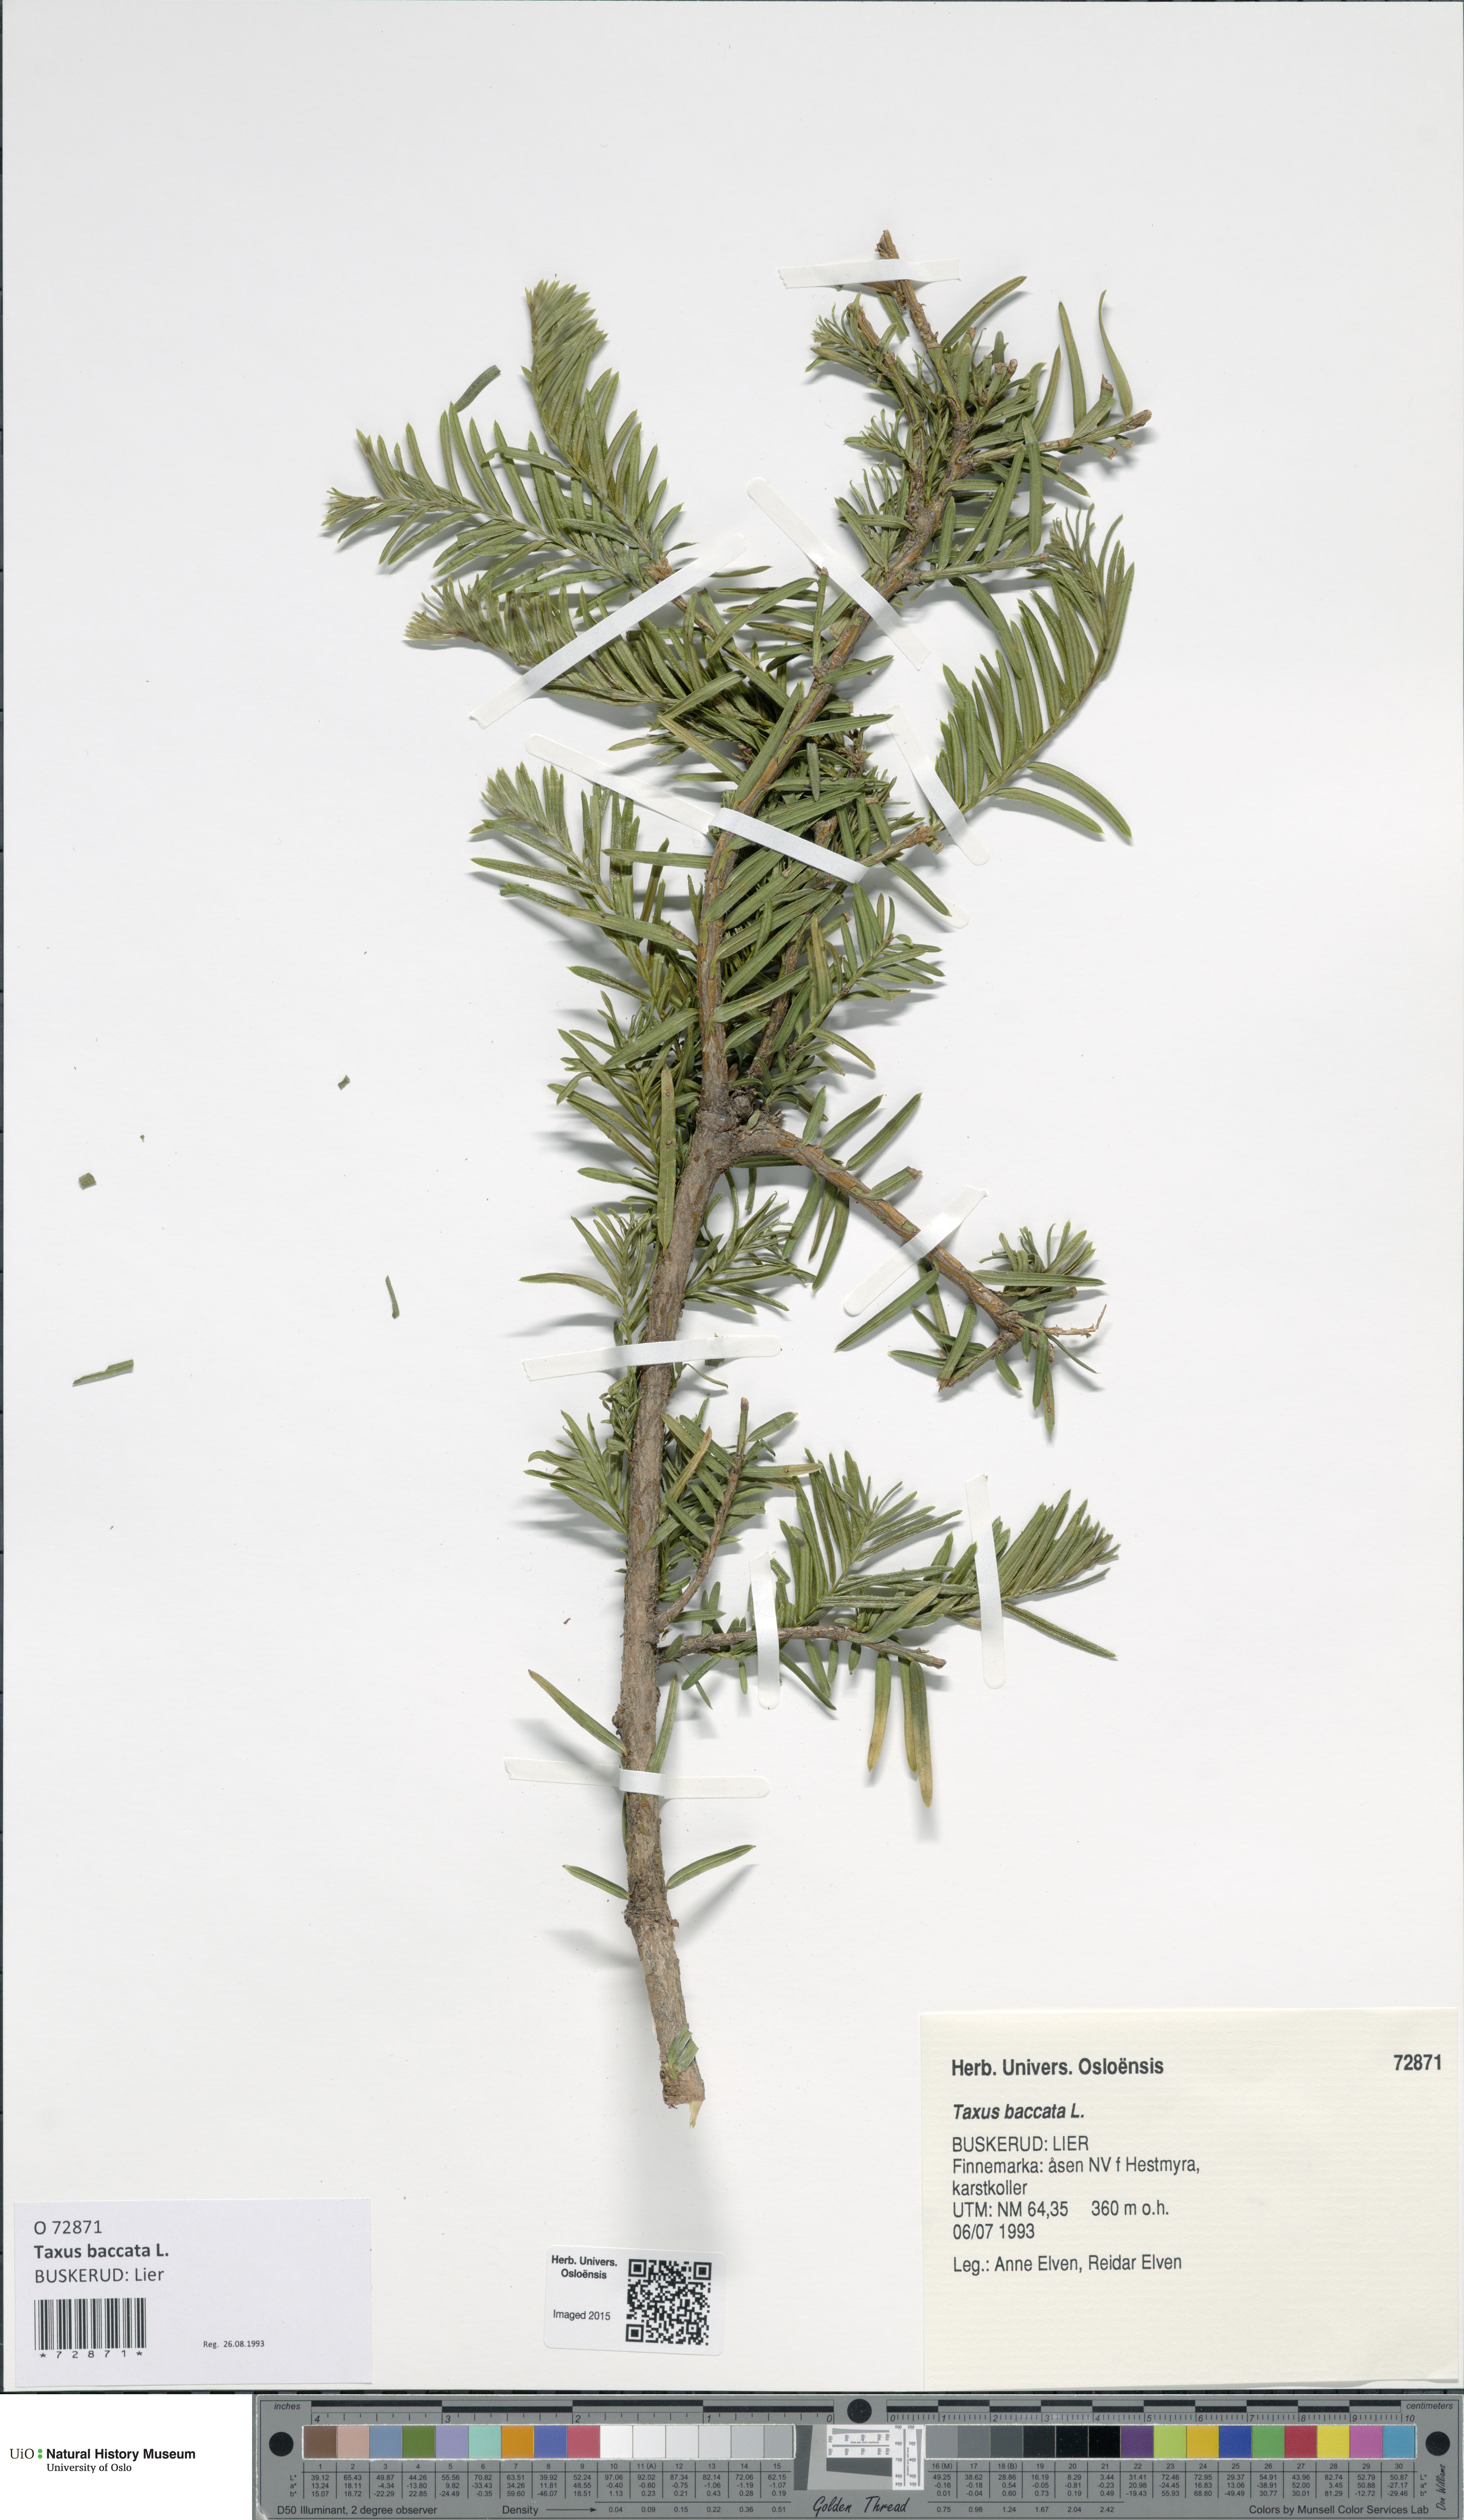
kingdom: Plantae
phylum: Tracheophyta
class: Pinopsida
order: Pinales
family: Taxaceae
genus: Taxus
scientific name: Taxus baccata
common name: Yew
